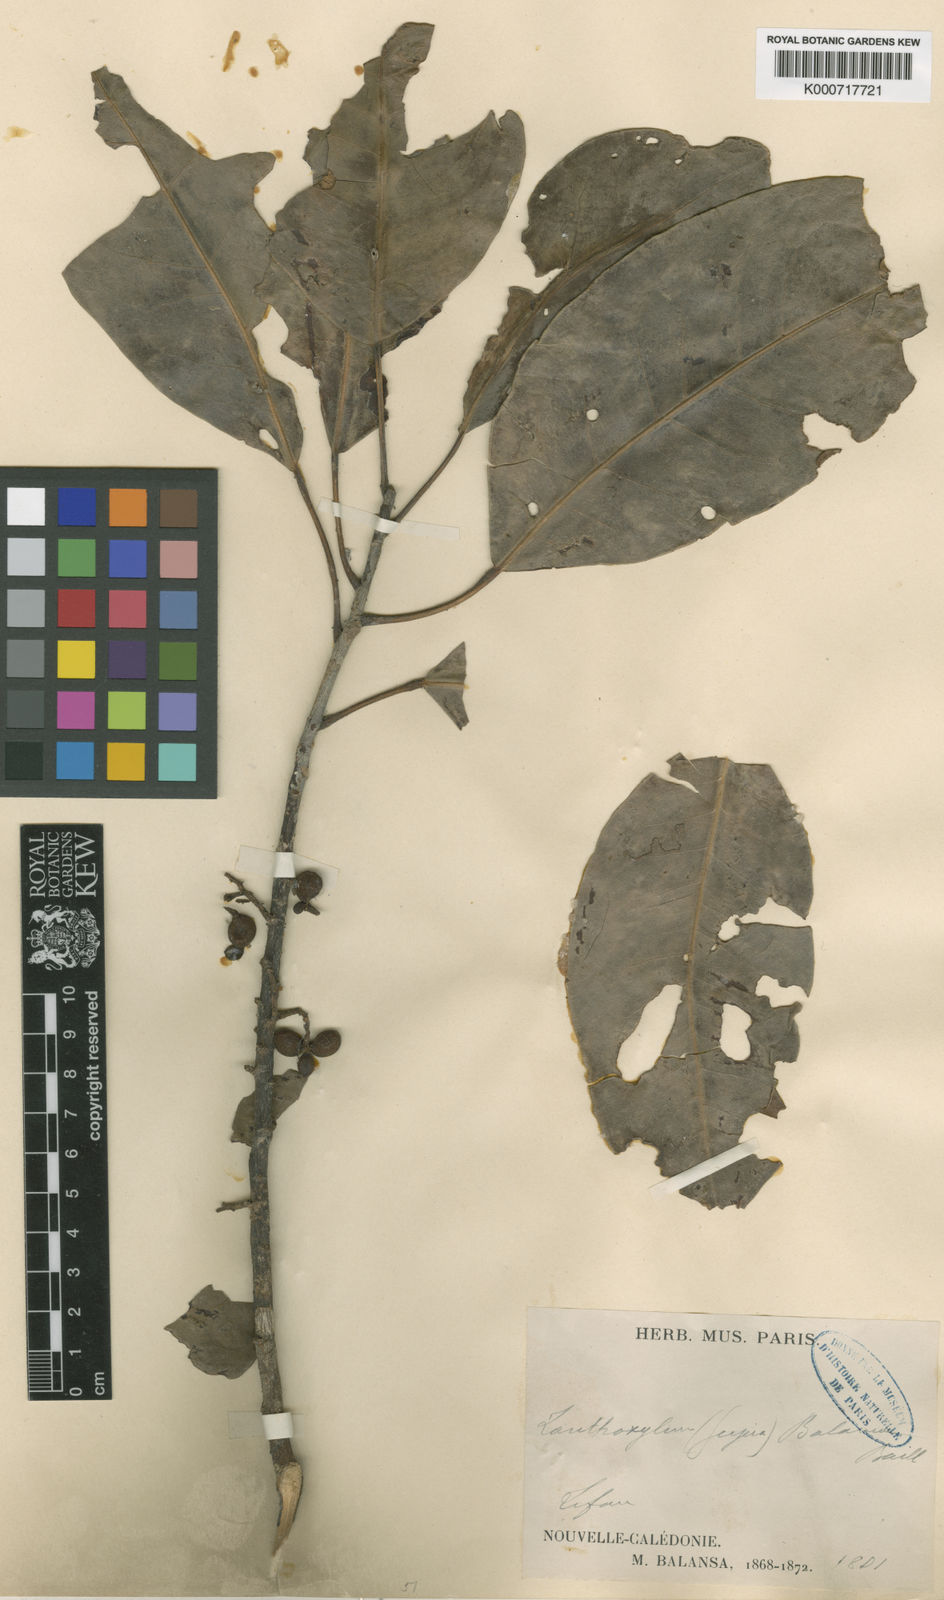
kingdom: Plantae
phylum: Tracheophyta
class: Magnoliopsida
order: Sapindales
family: Rutaceae
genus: Geijera
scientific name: Geijera balansae
